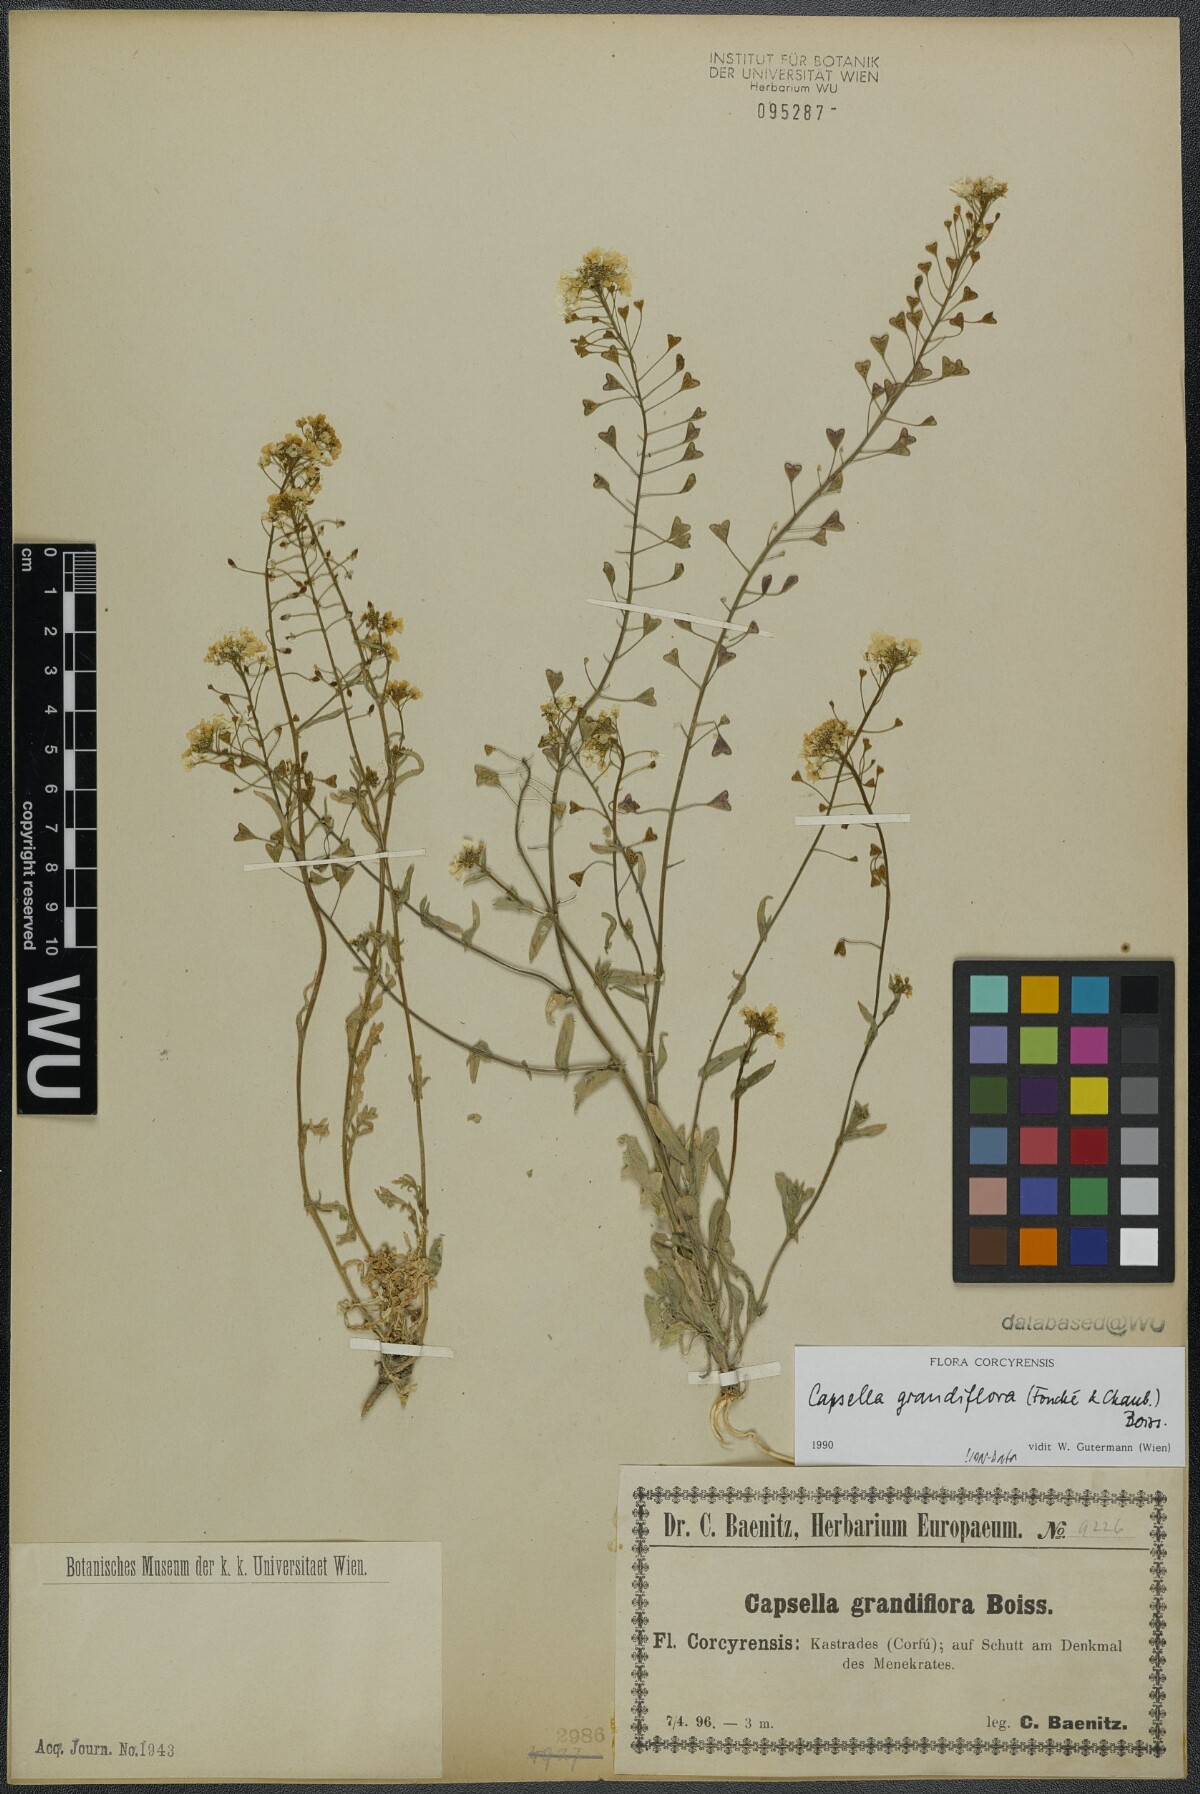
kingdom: Plantae
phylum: Tracheophyta
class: Magnoliopsida
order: Brassicales
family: Brassicaceae
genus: Capsella
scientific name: Capsella grandiflora
